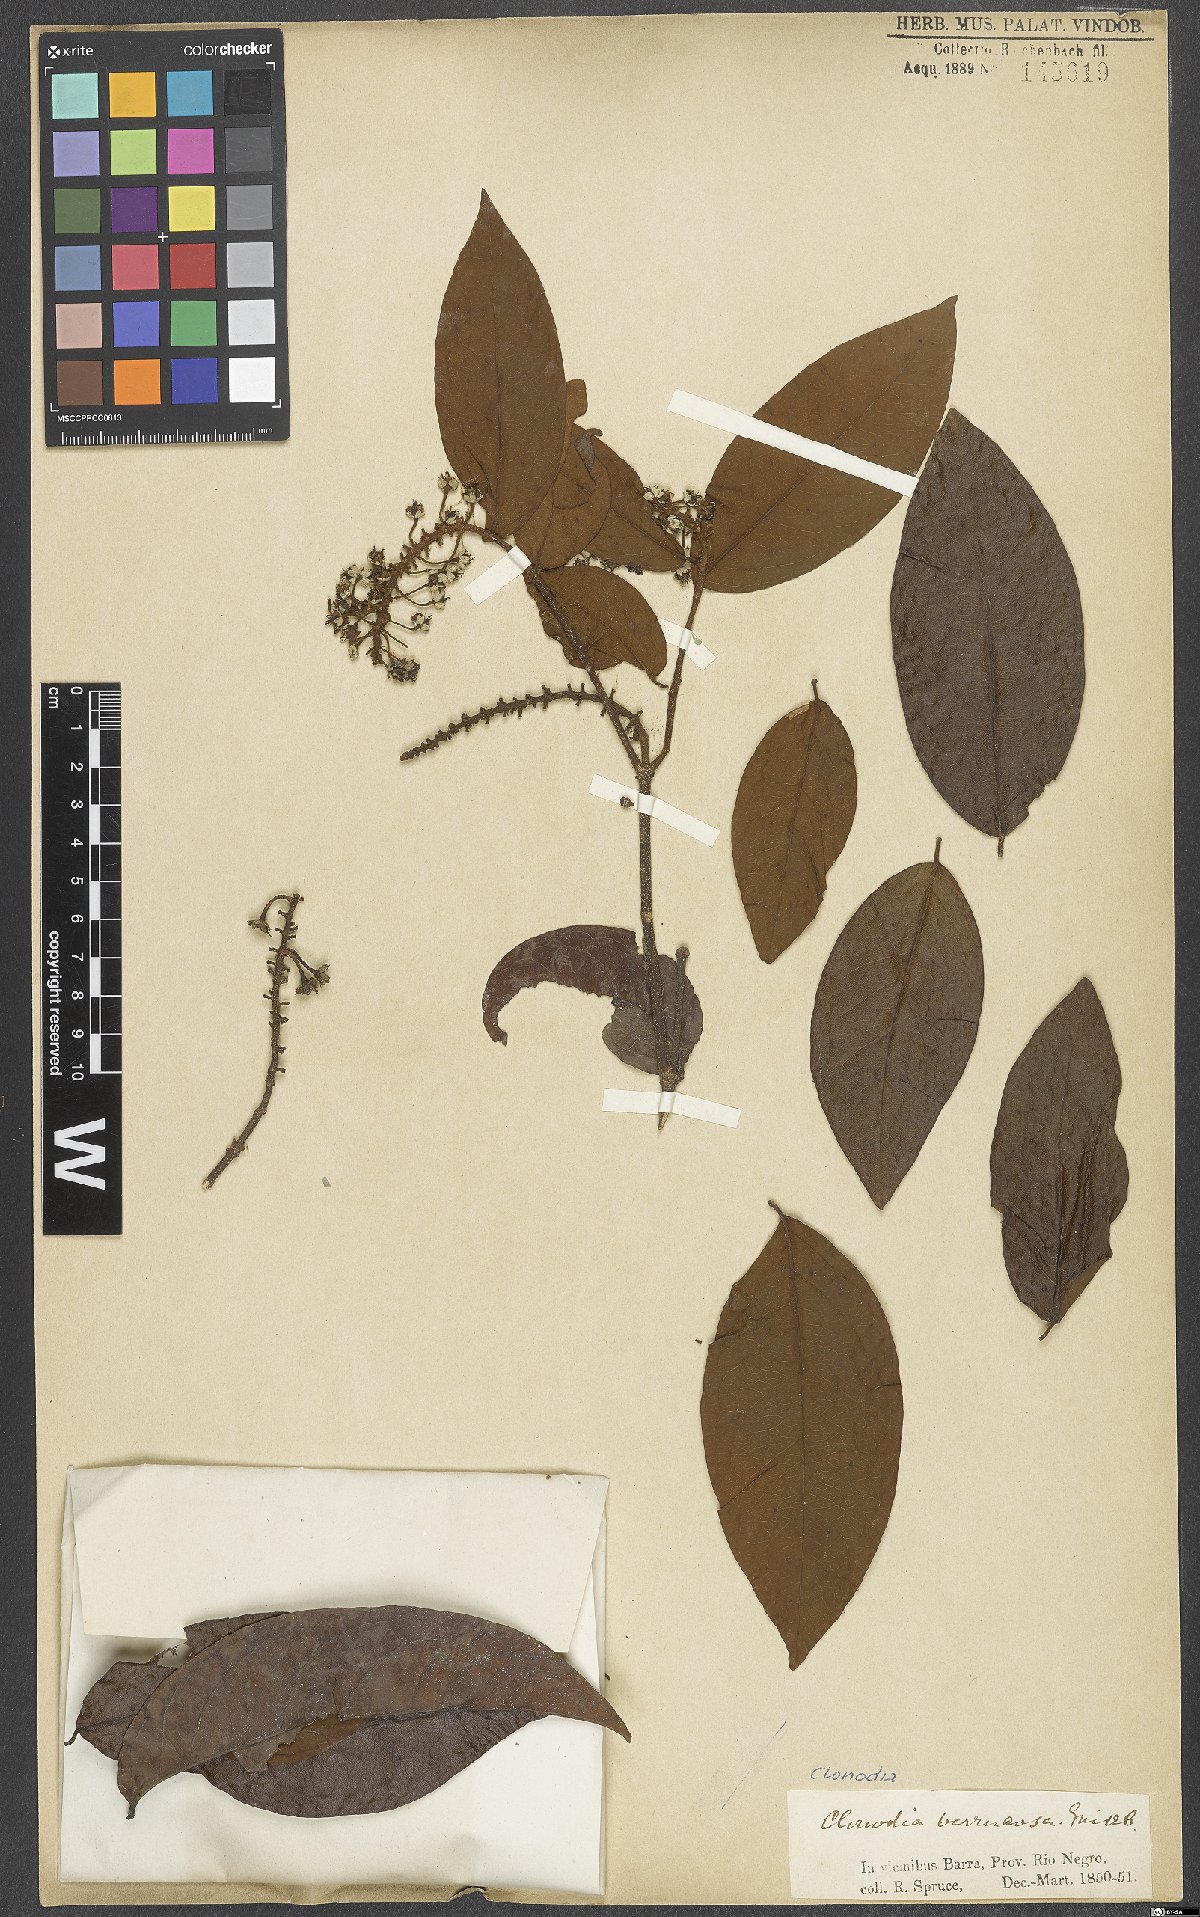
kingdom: Plantae
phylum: Tracheophyta
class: Magnoliopsida
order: Malpighiales
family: Malpighiaceae
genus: Heteropterys
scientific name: Heteropterys racemosa
